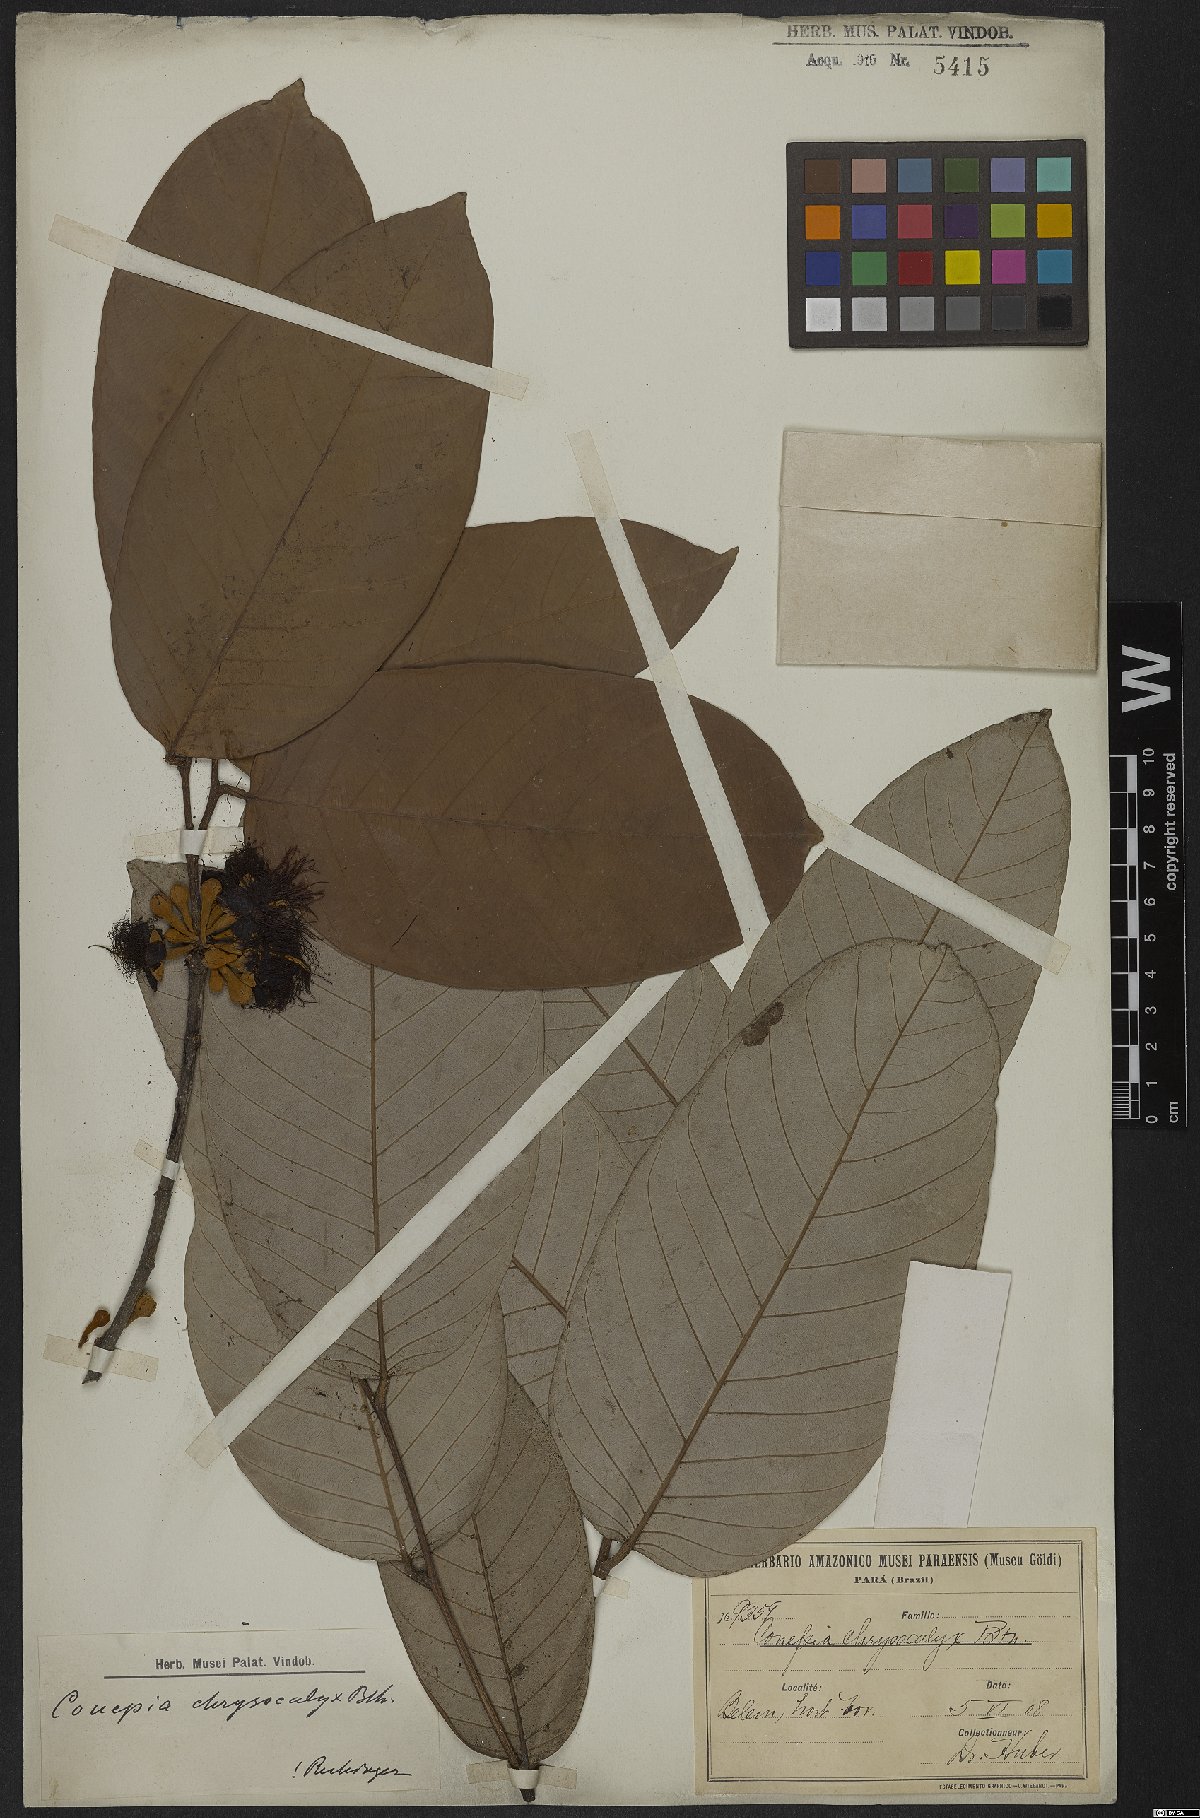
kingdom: Plantae
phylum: Tracheophyta
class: Magnoliopsida
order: Malpighiales
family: Chrysobalanaceae
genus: Couepia
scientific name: Couepia chrysocalyx
